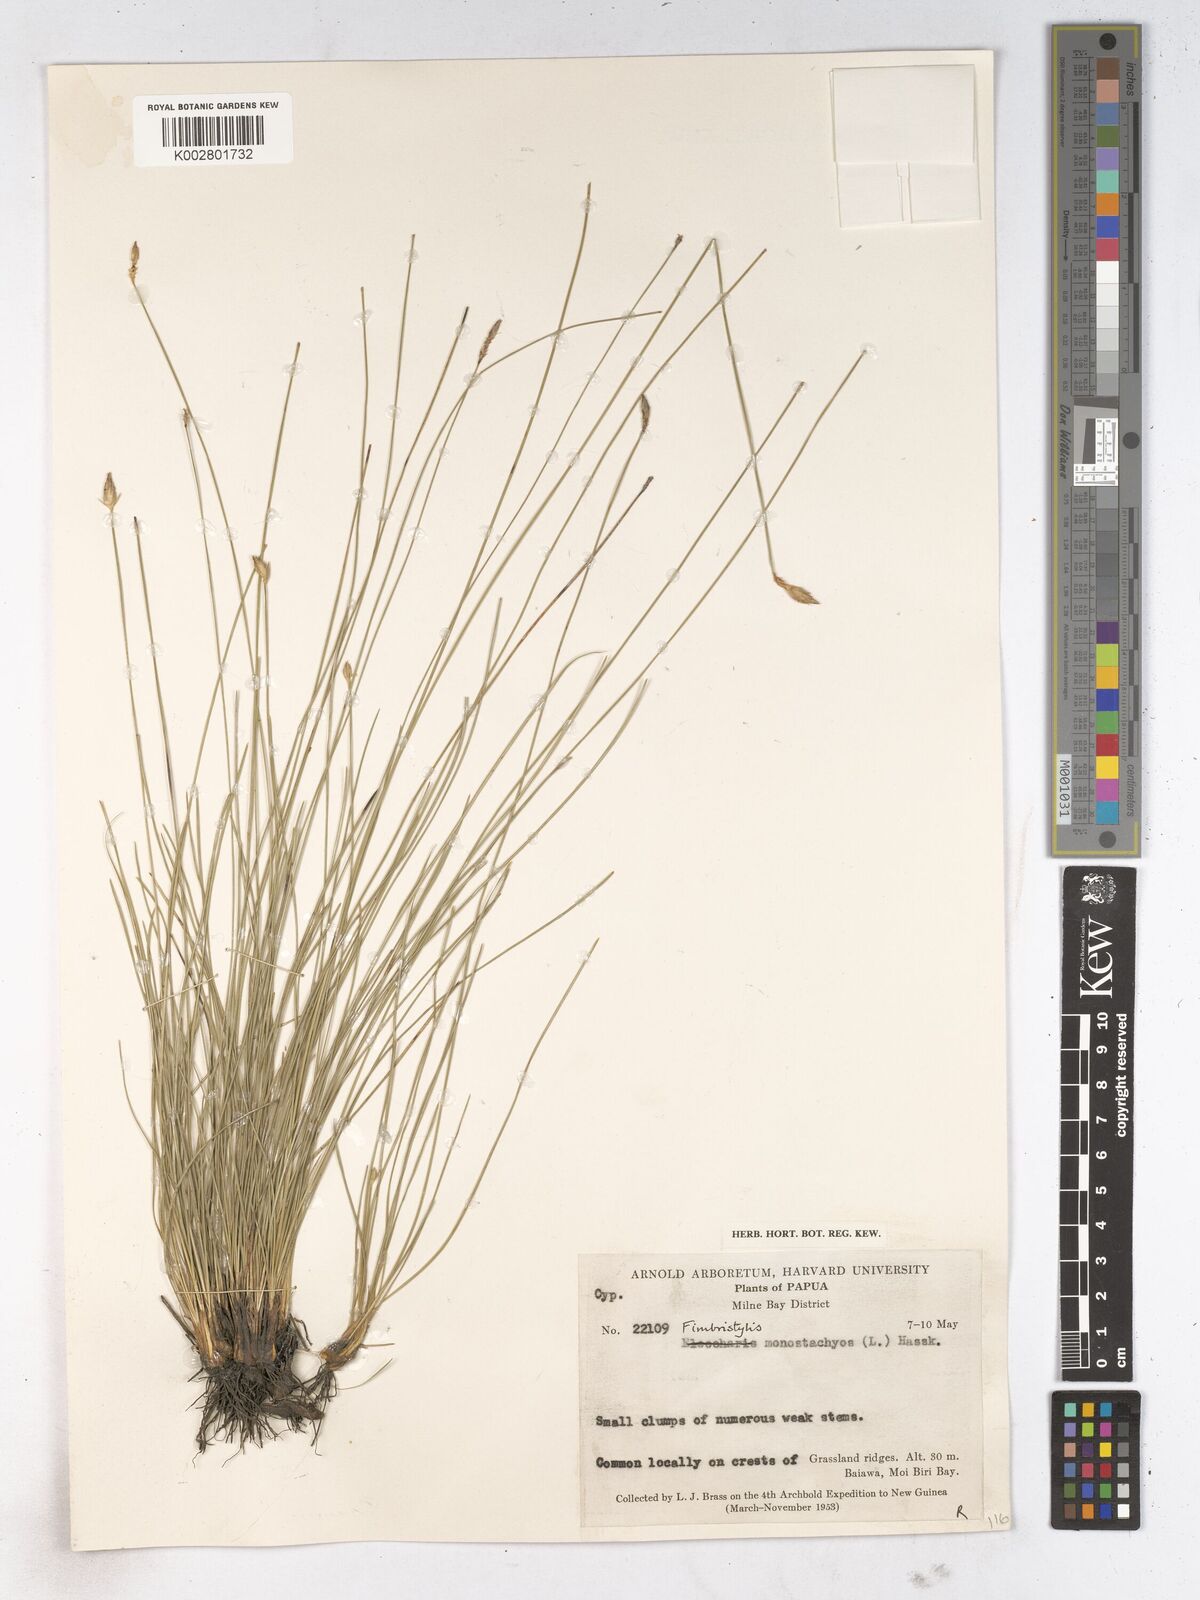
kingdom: Plantae
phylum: Tracheophyta
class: Liliopsida
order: Poales
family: Cyperaceae
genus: Abildgaardia
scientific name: Abildgaardia ovata
